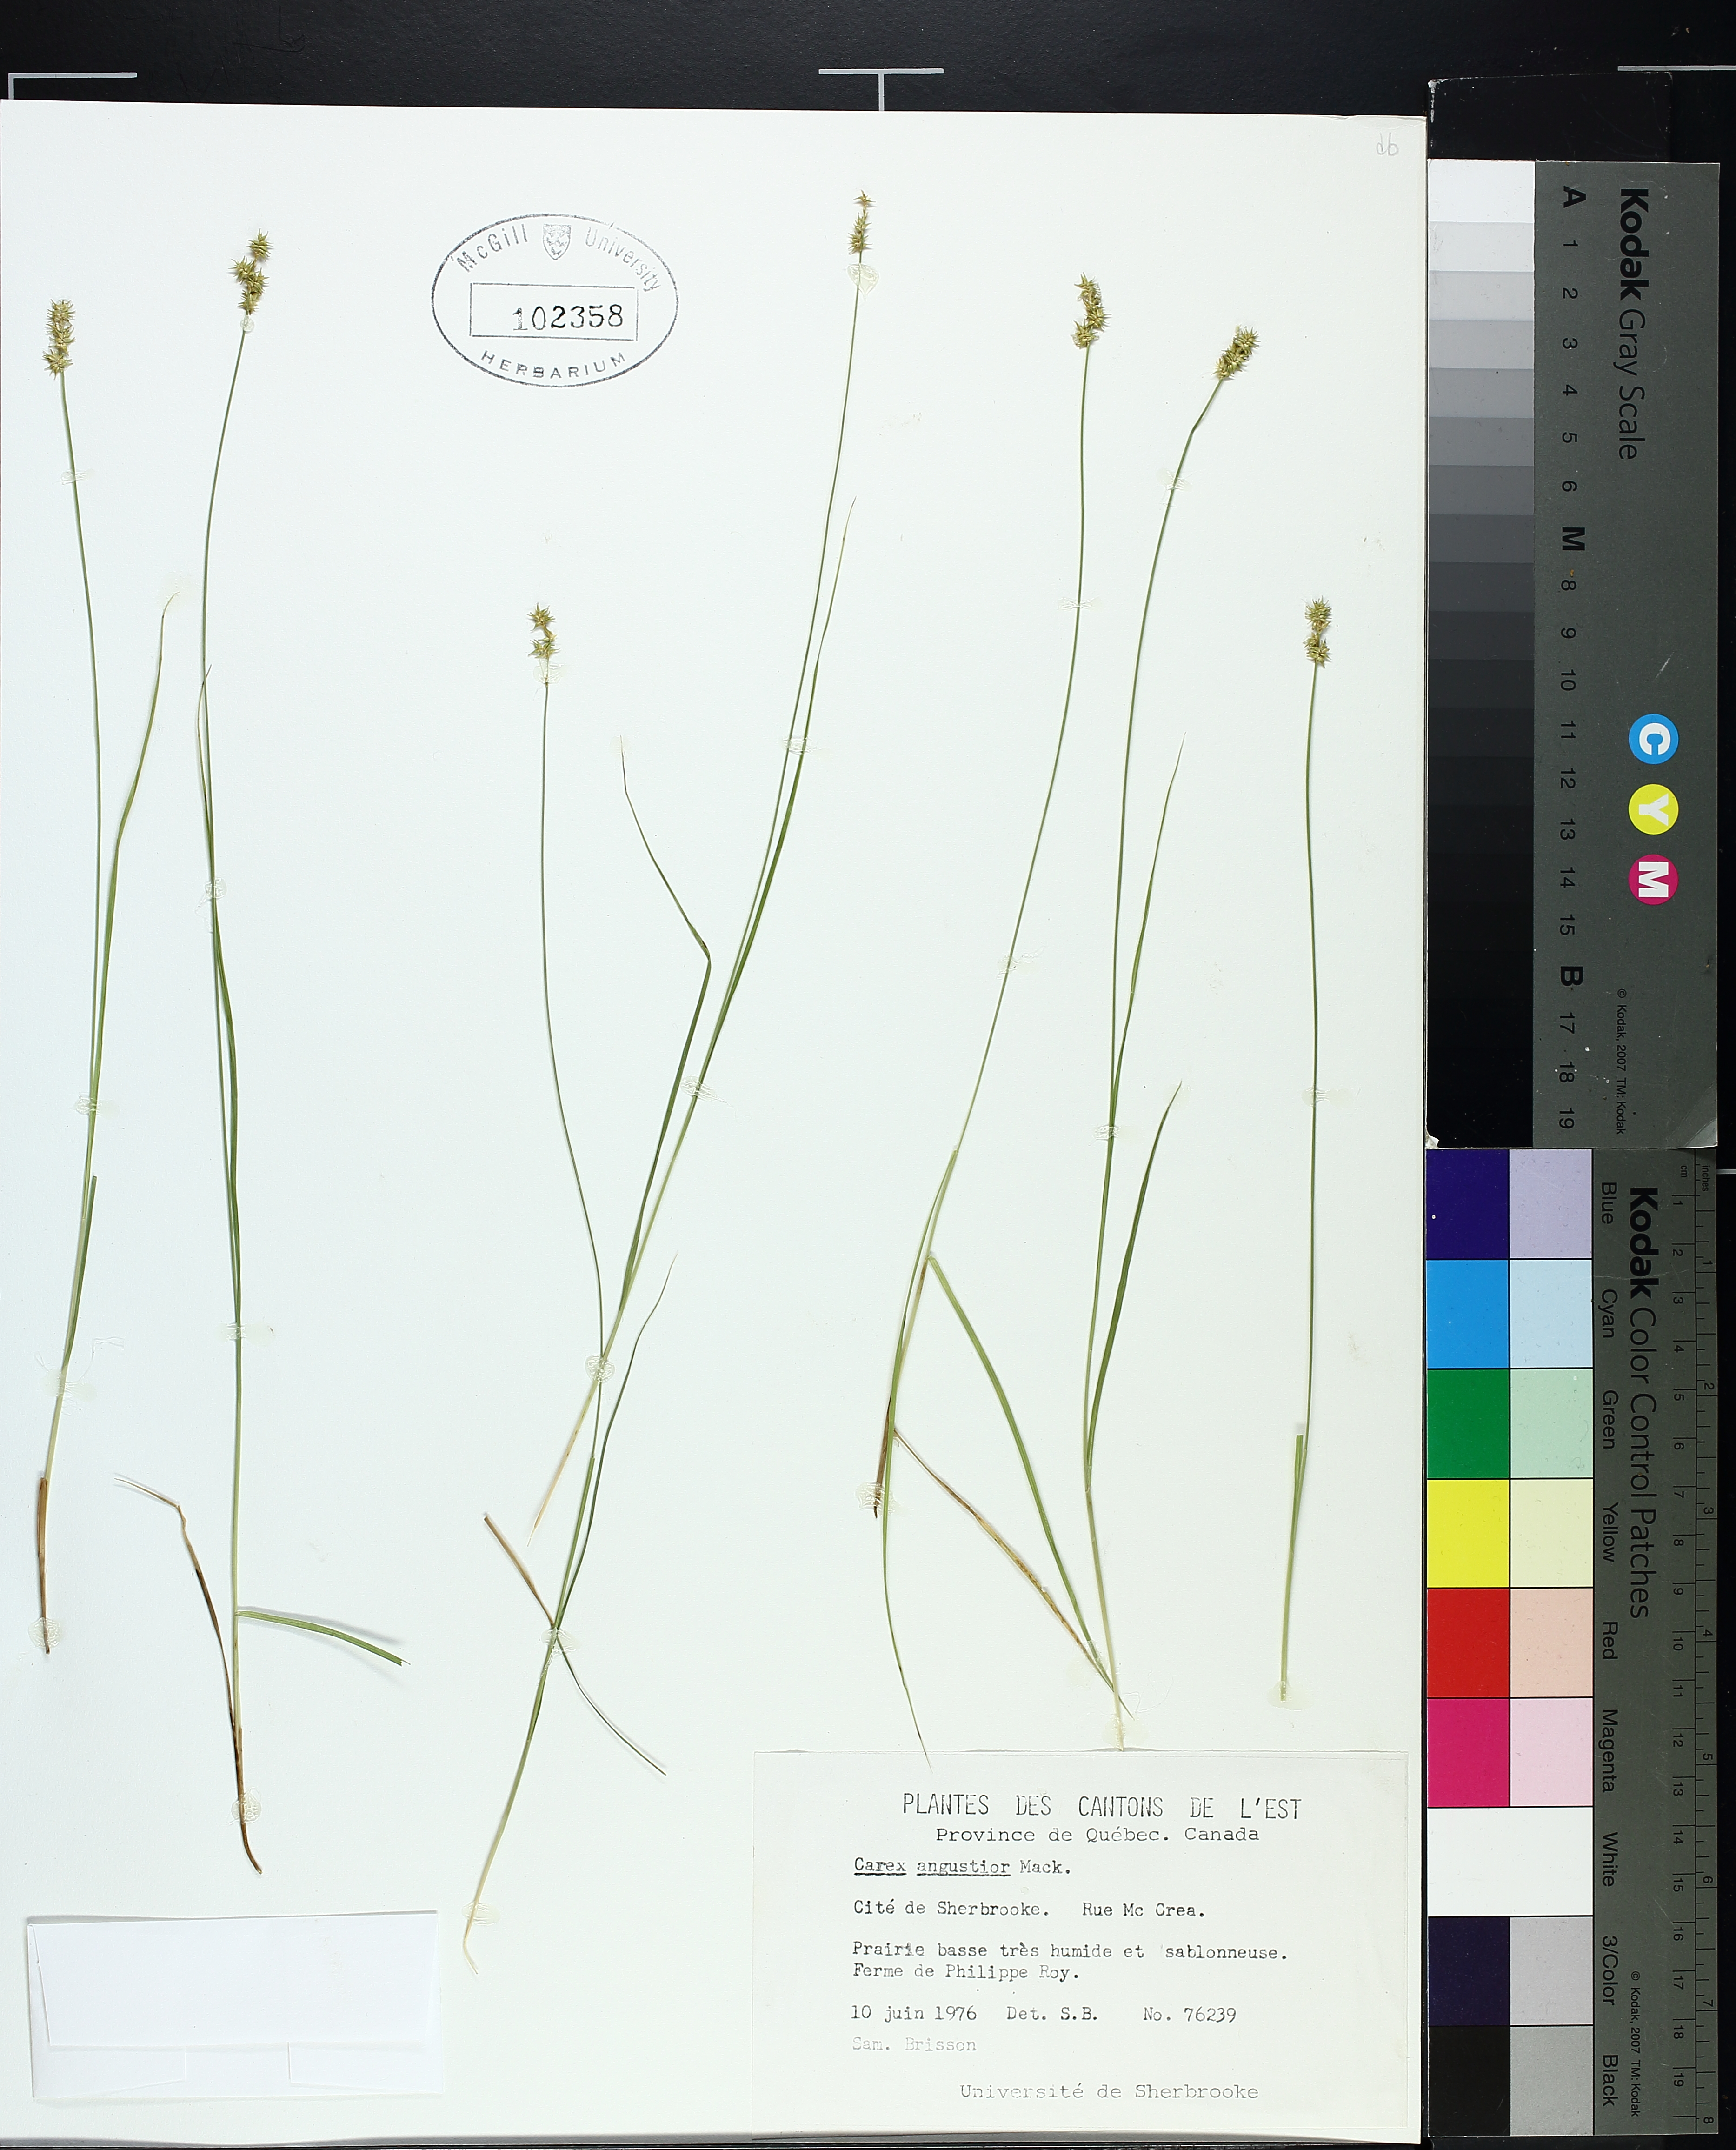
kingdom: Plantae
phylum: Tracheophyta
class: Liliopsida
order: Poales
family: Cyperaceae
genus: Carex
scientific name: Carex echinata
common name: Star sedge
